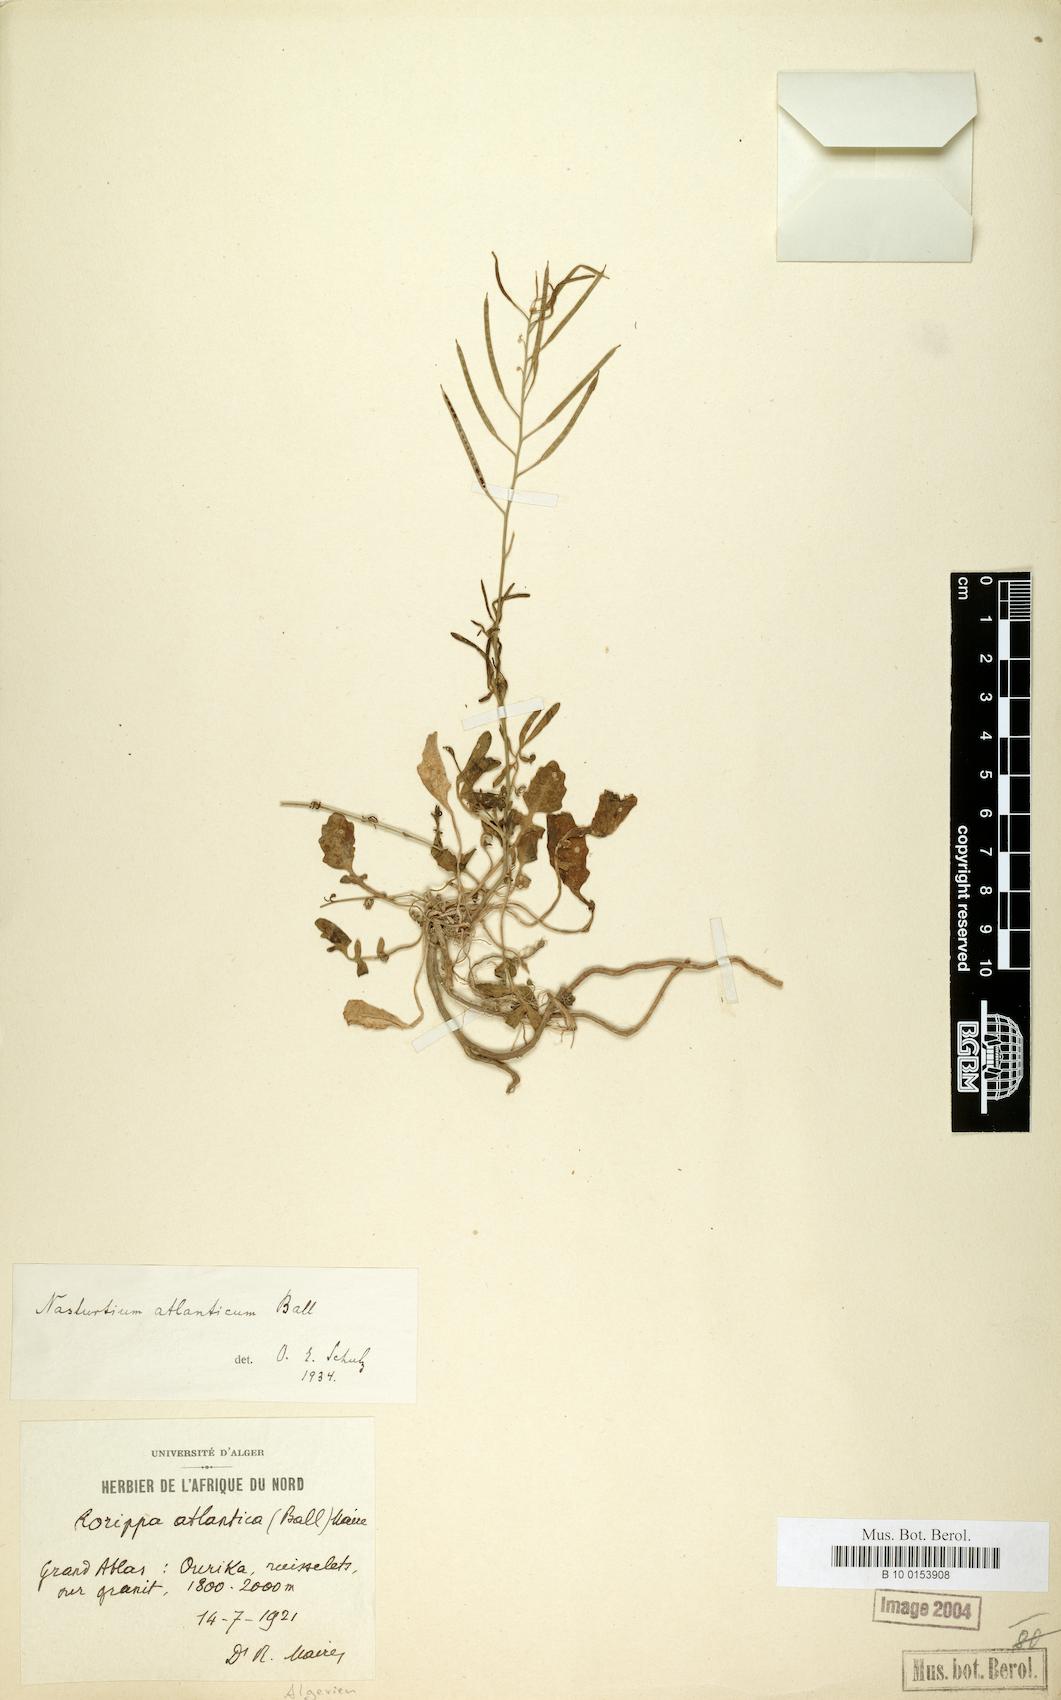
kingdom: Plantae
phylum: Tracheophyta
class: Magnoliopsida
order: Brassicales
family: Brassicaceae
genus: Rorippa
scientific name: Rorippa atlantica
